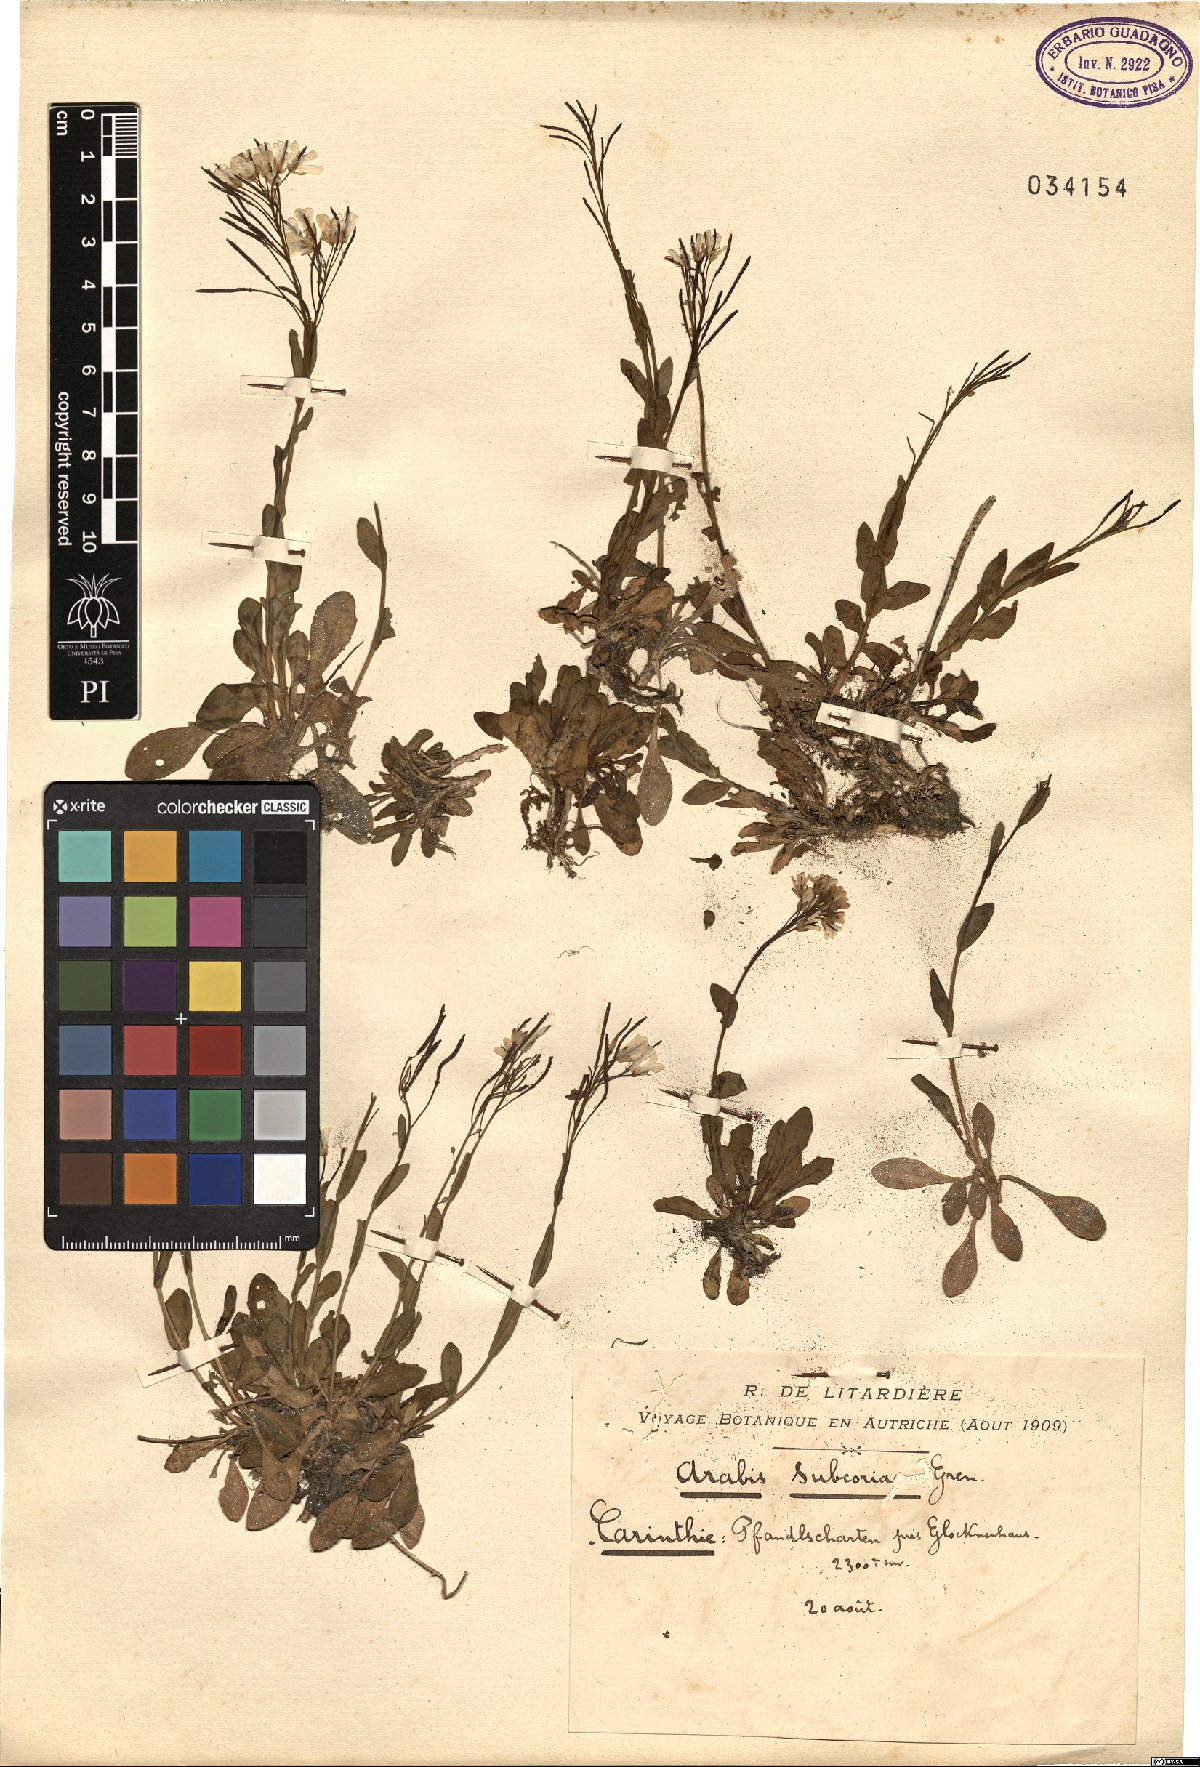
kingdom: Plantae
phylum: Tracheophyta
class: Magnoliopsida
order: Brassicales
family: Brassicaceae
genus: Arabis
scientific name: Arabis soyeri
